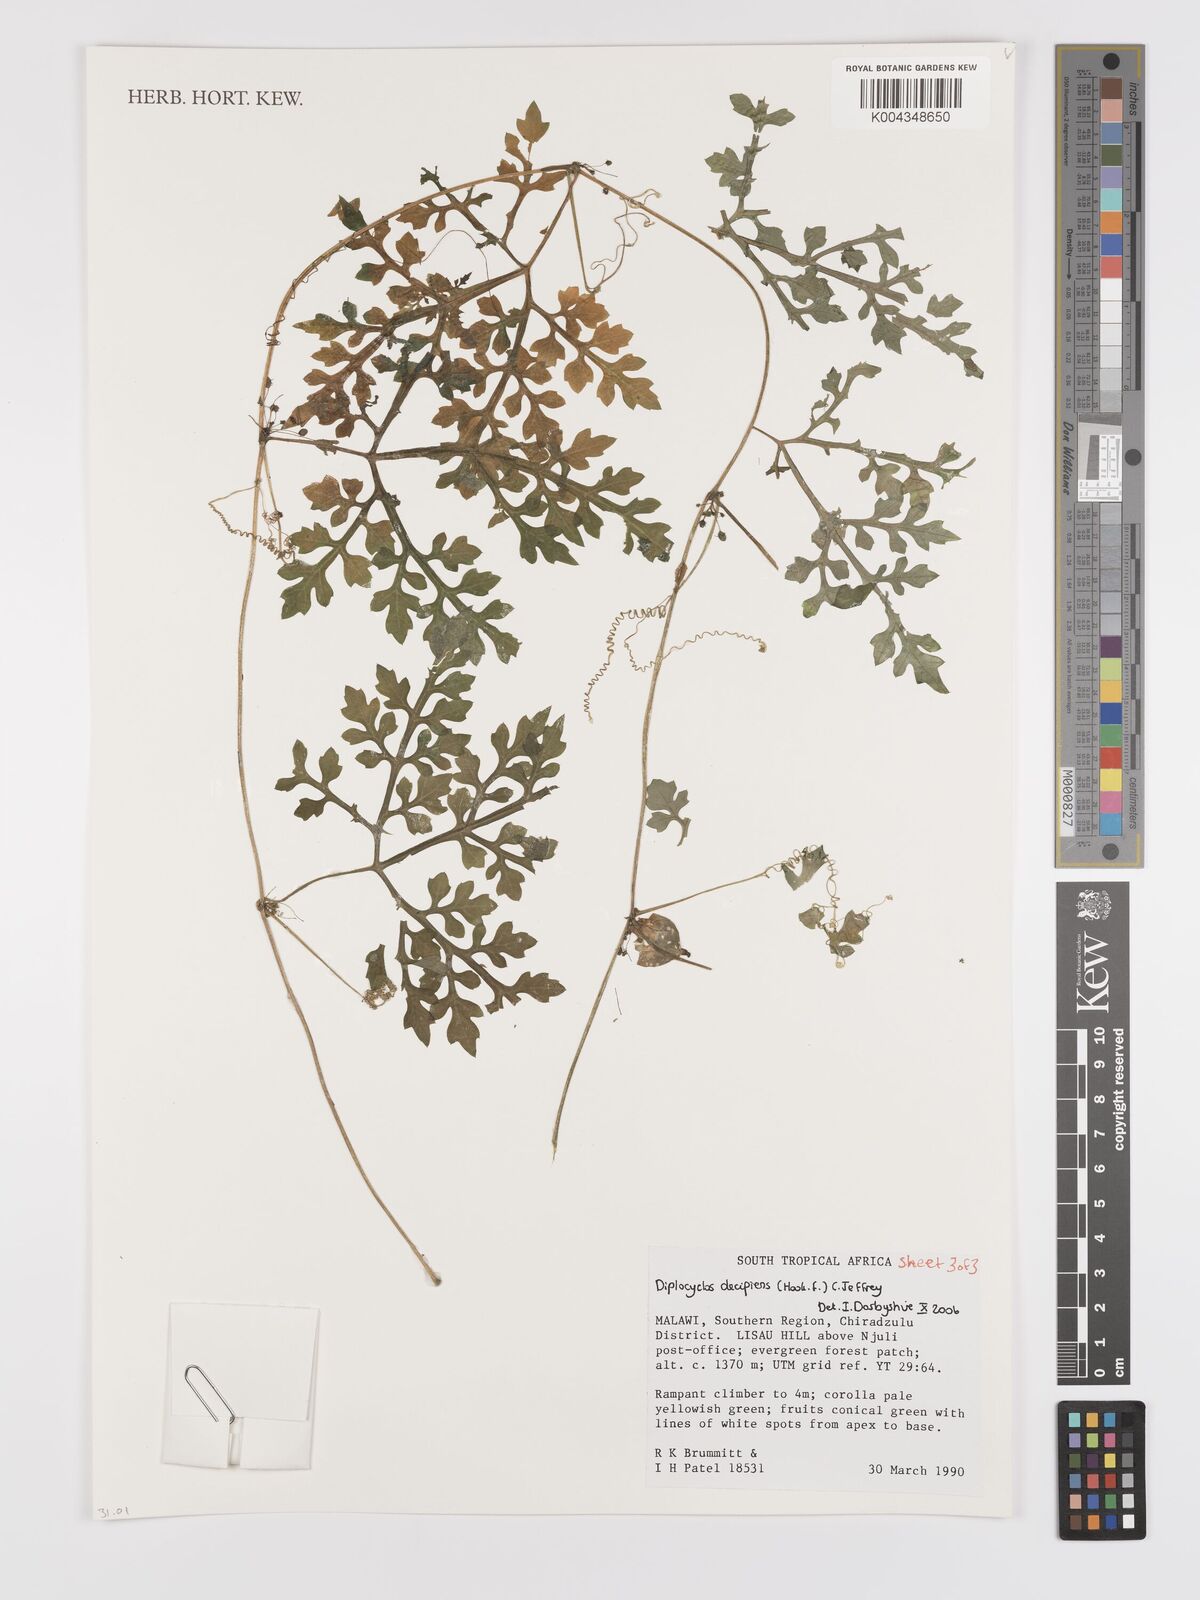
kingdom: Plantae
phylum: Tracheophyta
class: Magnoliopsida
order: Cucurbitales
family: Cucurbitaceae
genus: Diplocyclos
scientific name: Diplocyclos decipiens
